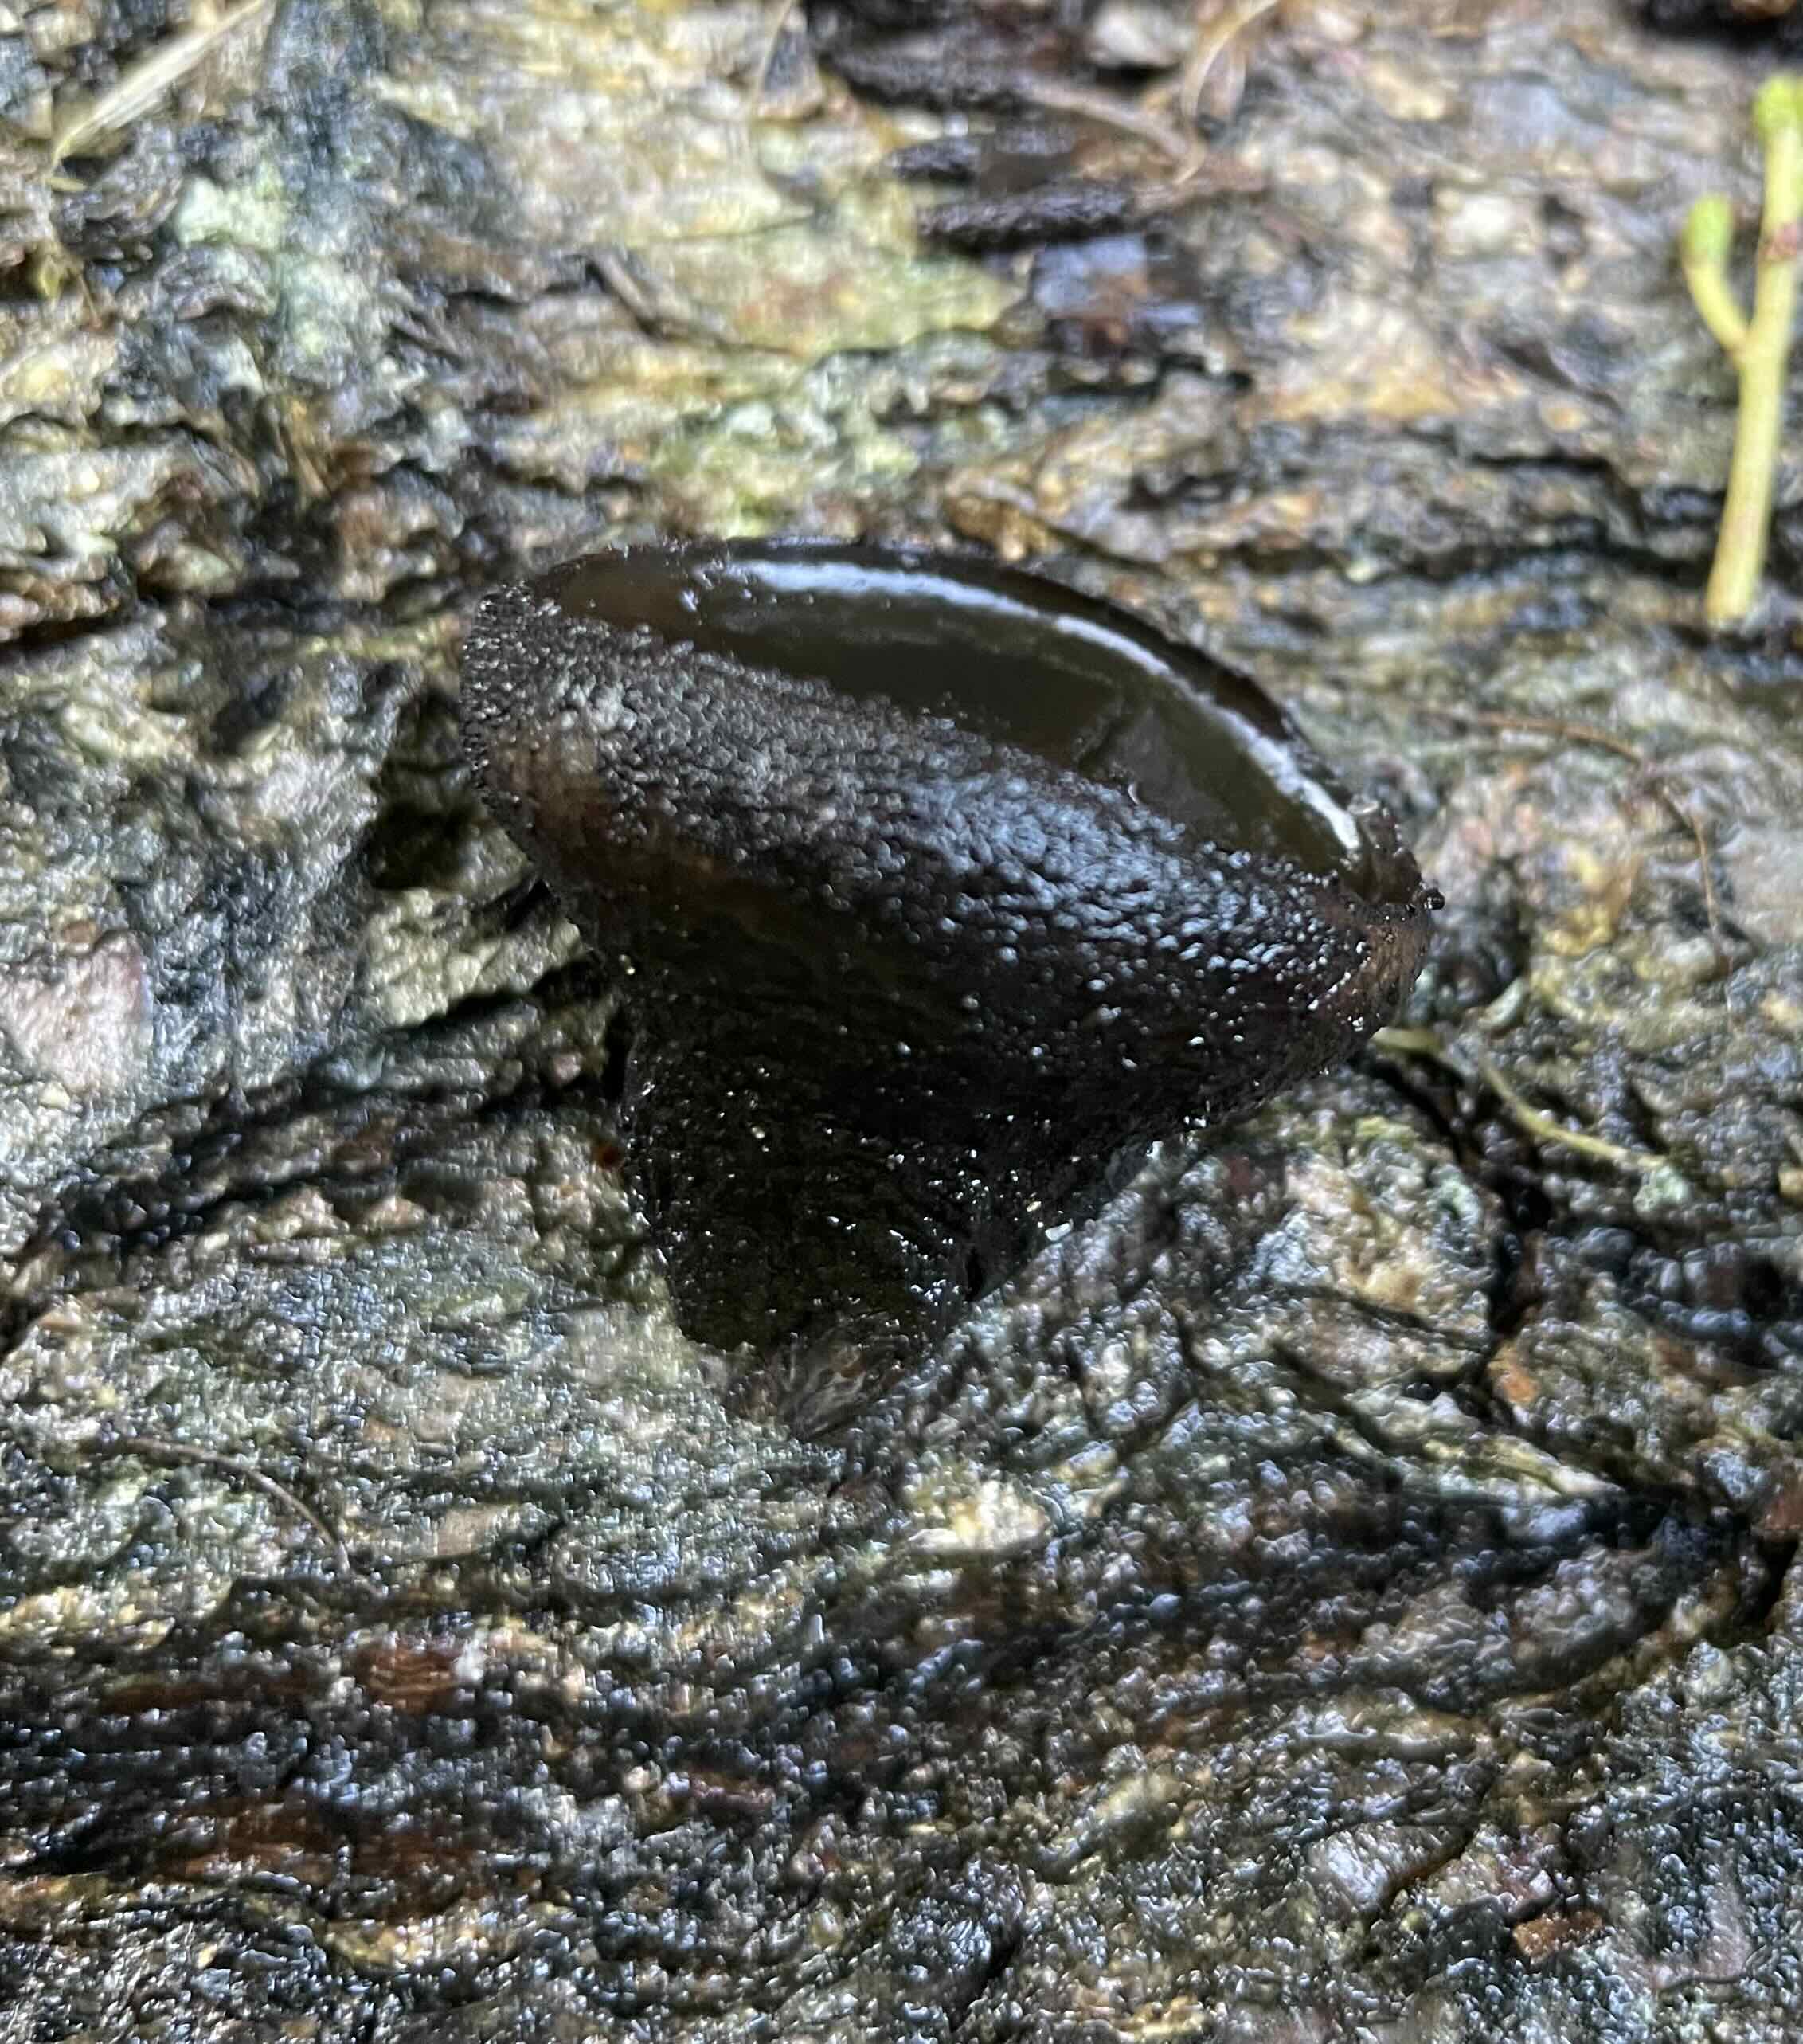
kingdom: Fungi
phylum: Ascomycota
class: Leotiomycetes
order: Phacidiales
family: Phacidiaceae
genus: Bulgaria
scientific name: Bulgaria inquinans
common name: afsmittende topsvamp
